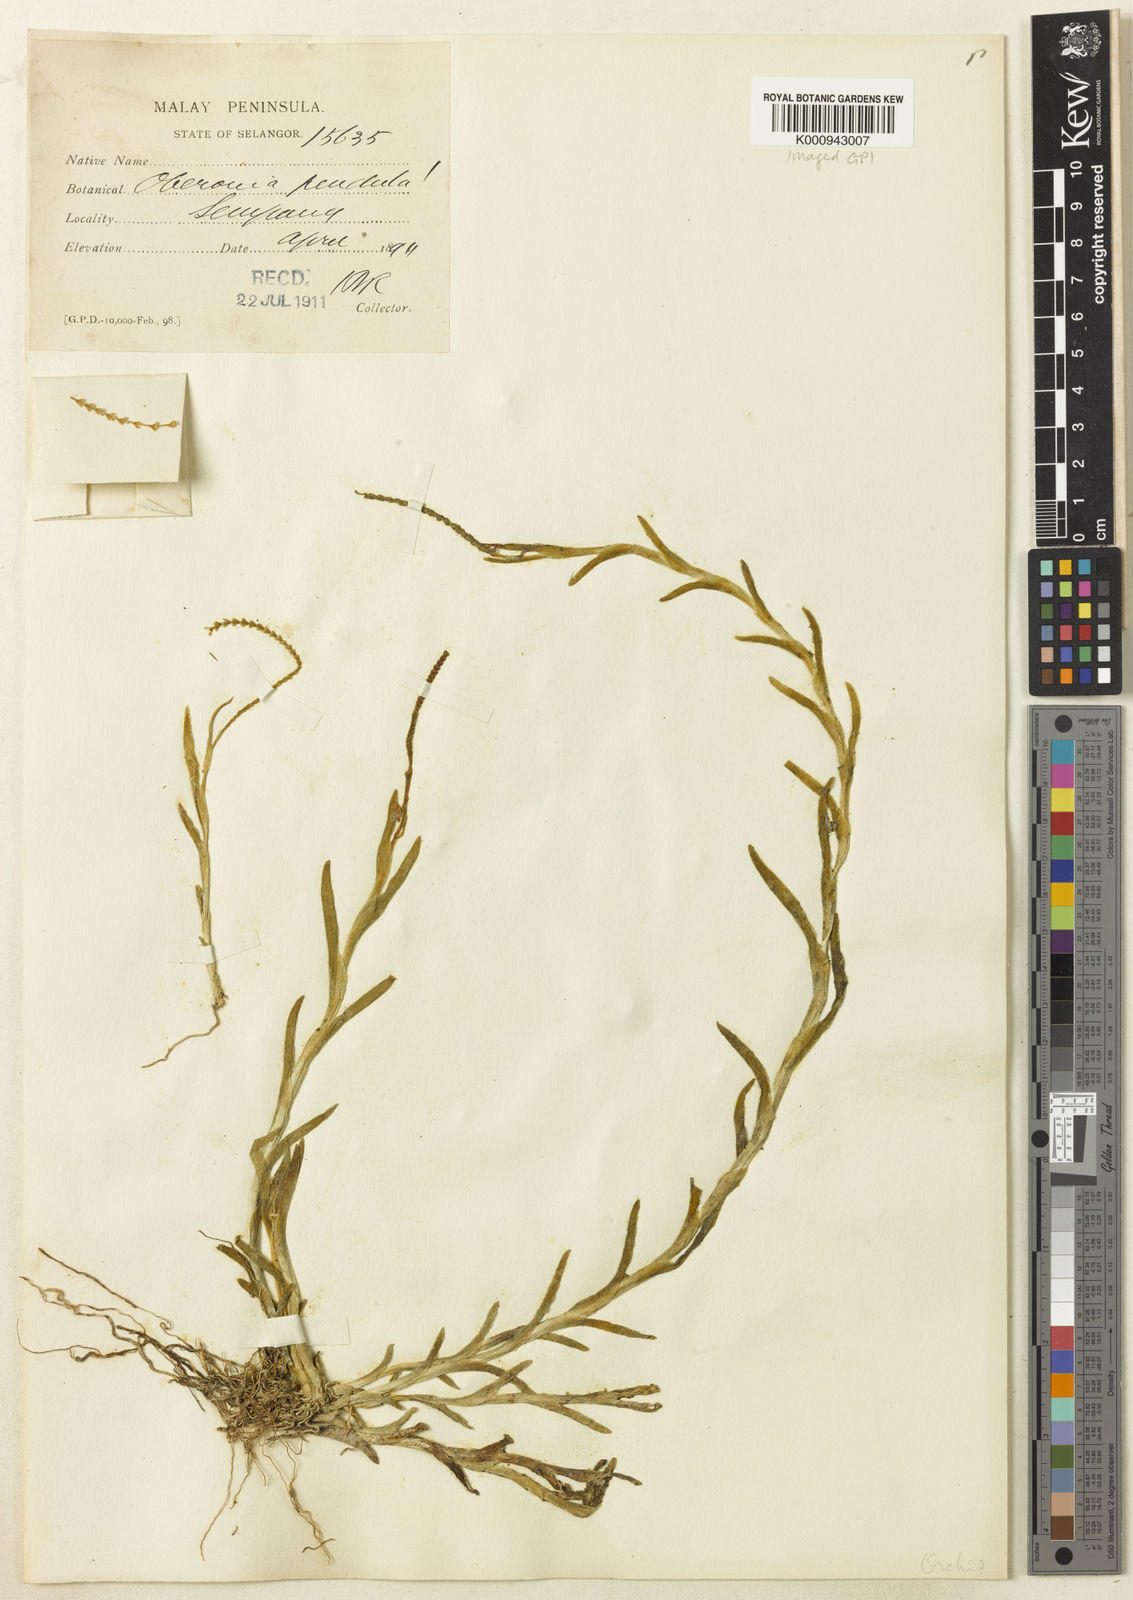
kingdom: Plantae
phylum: Tracheophyta
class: Liliopsida
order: Asparagales
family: Orchidaceae
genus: Oberonia
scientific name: Oberonia anthropophora
